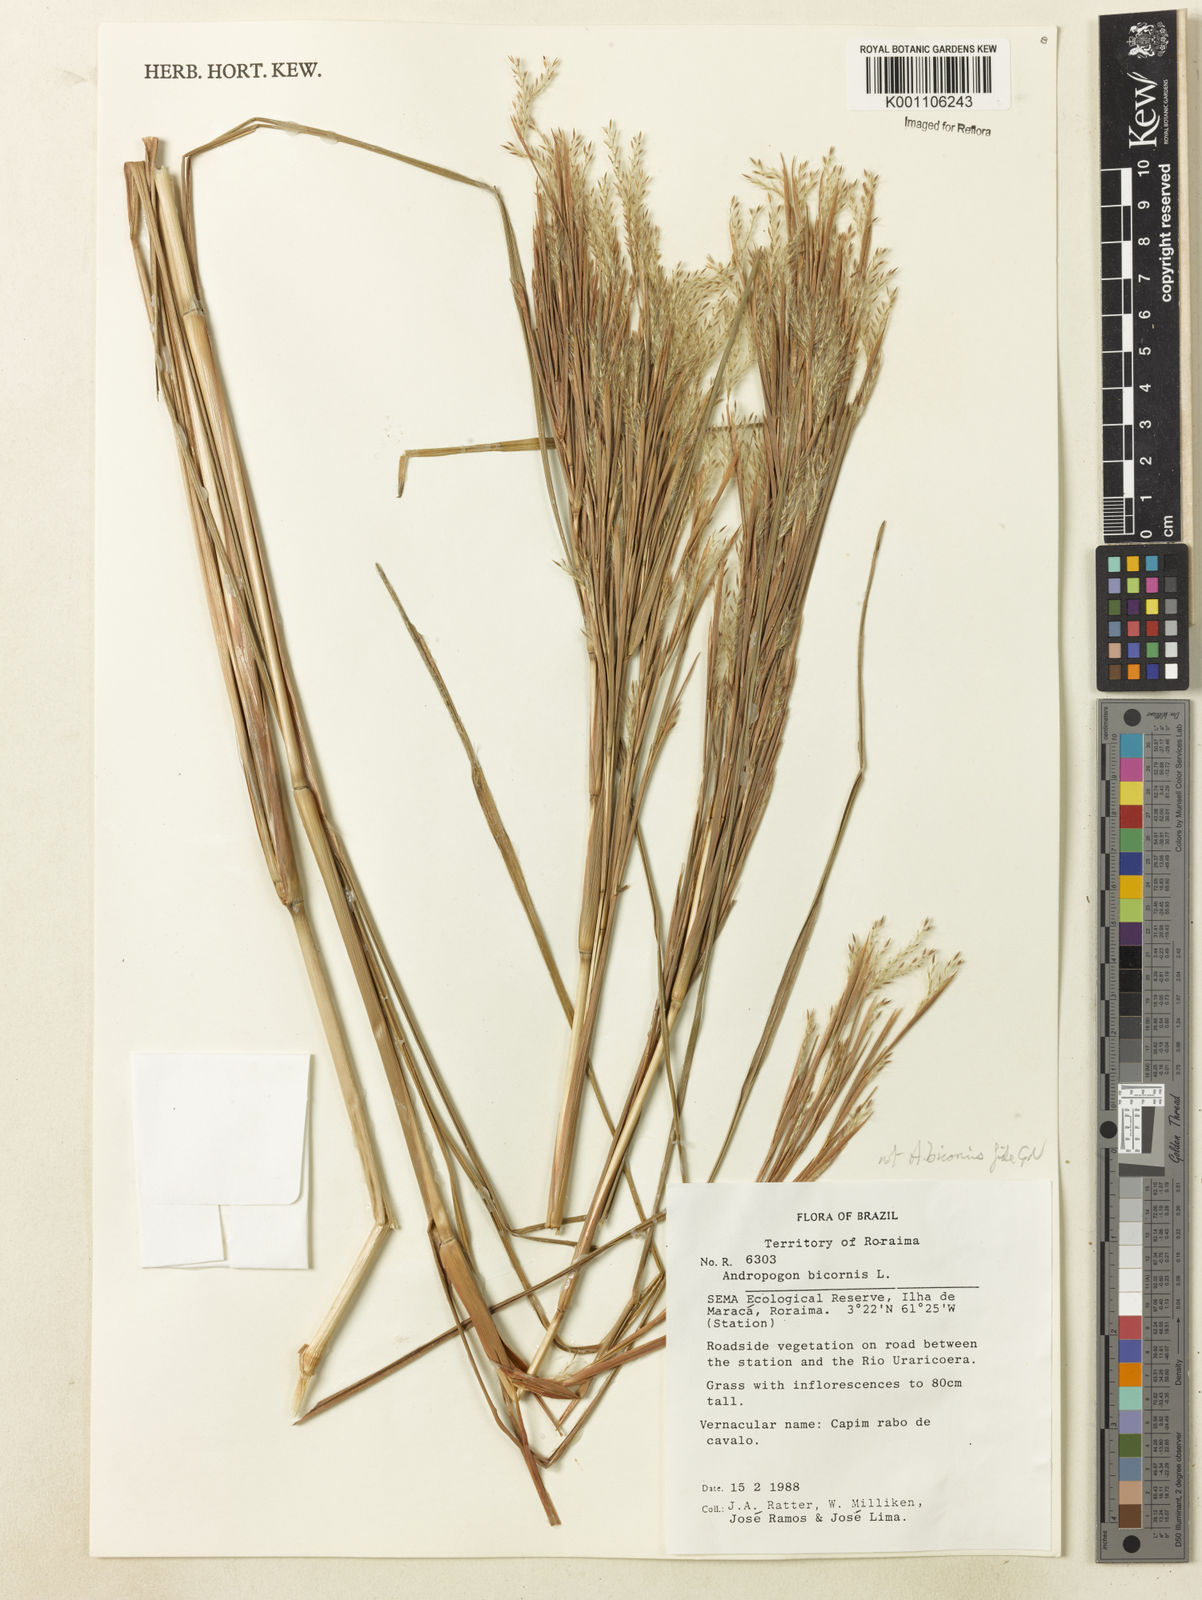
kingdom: Plantae
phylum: Tracheophyta
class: Liliopsida
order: Poales
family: Poaceae
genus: Andropogon
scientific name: Andropogon
